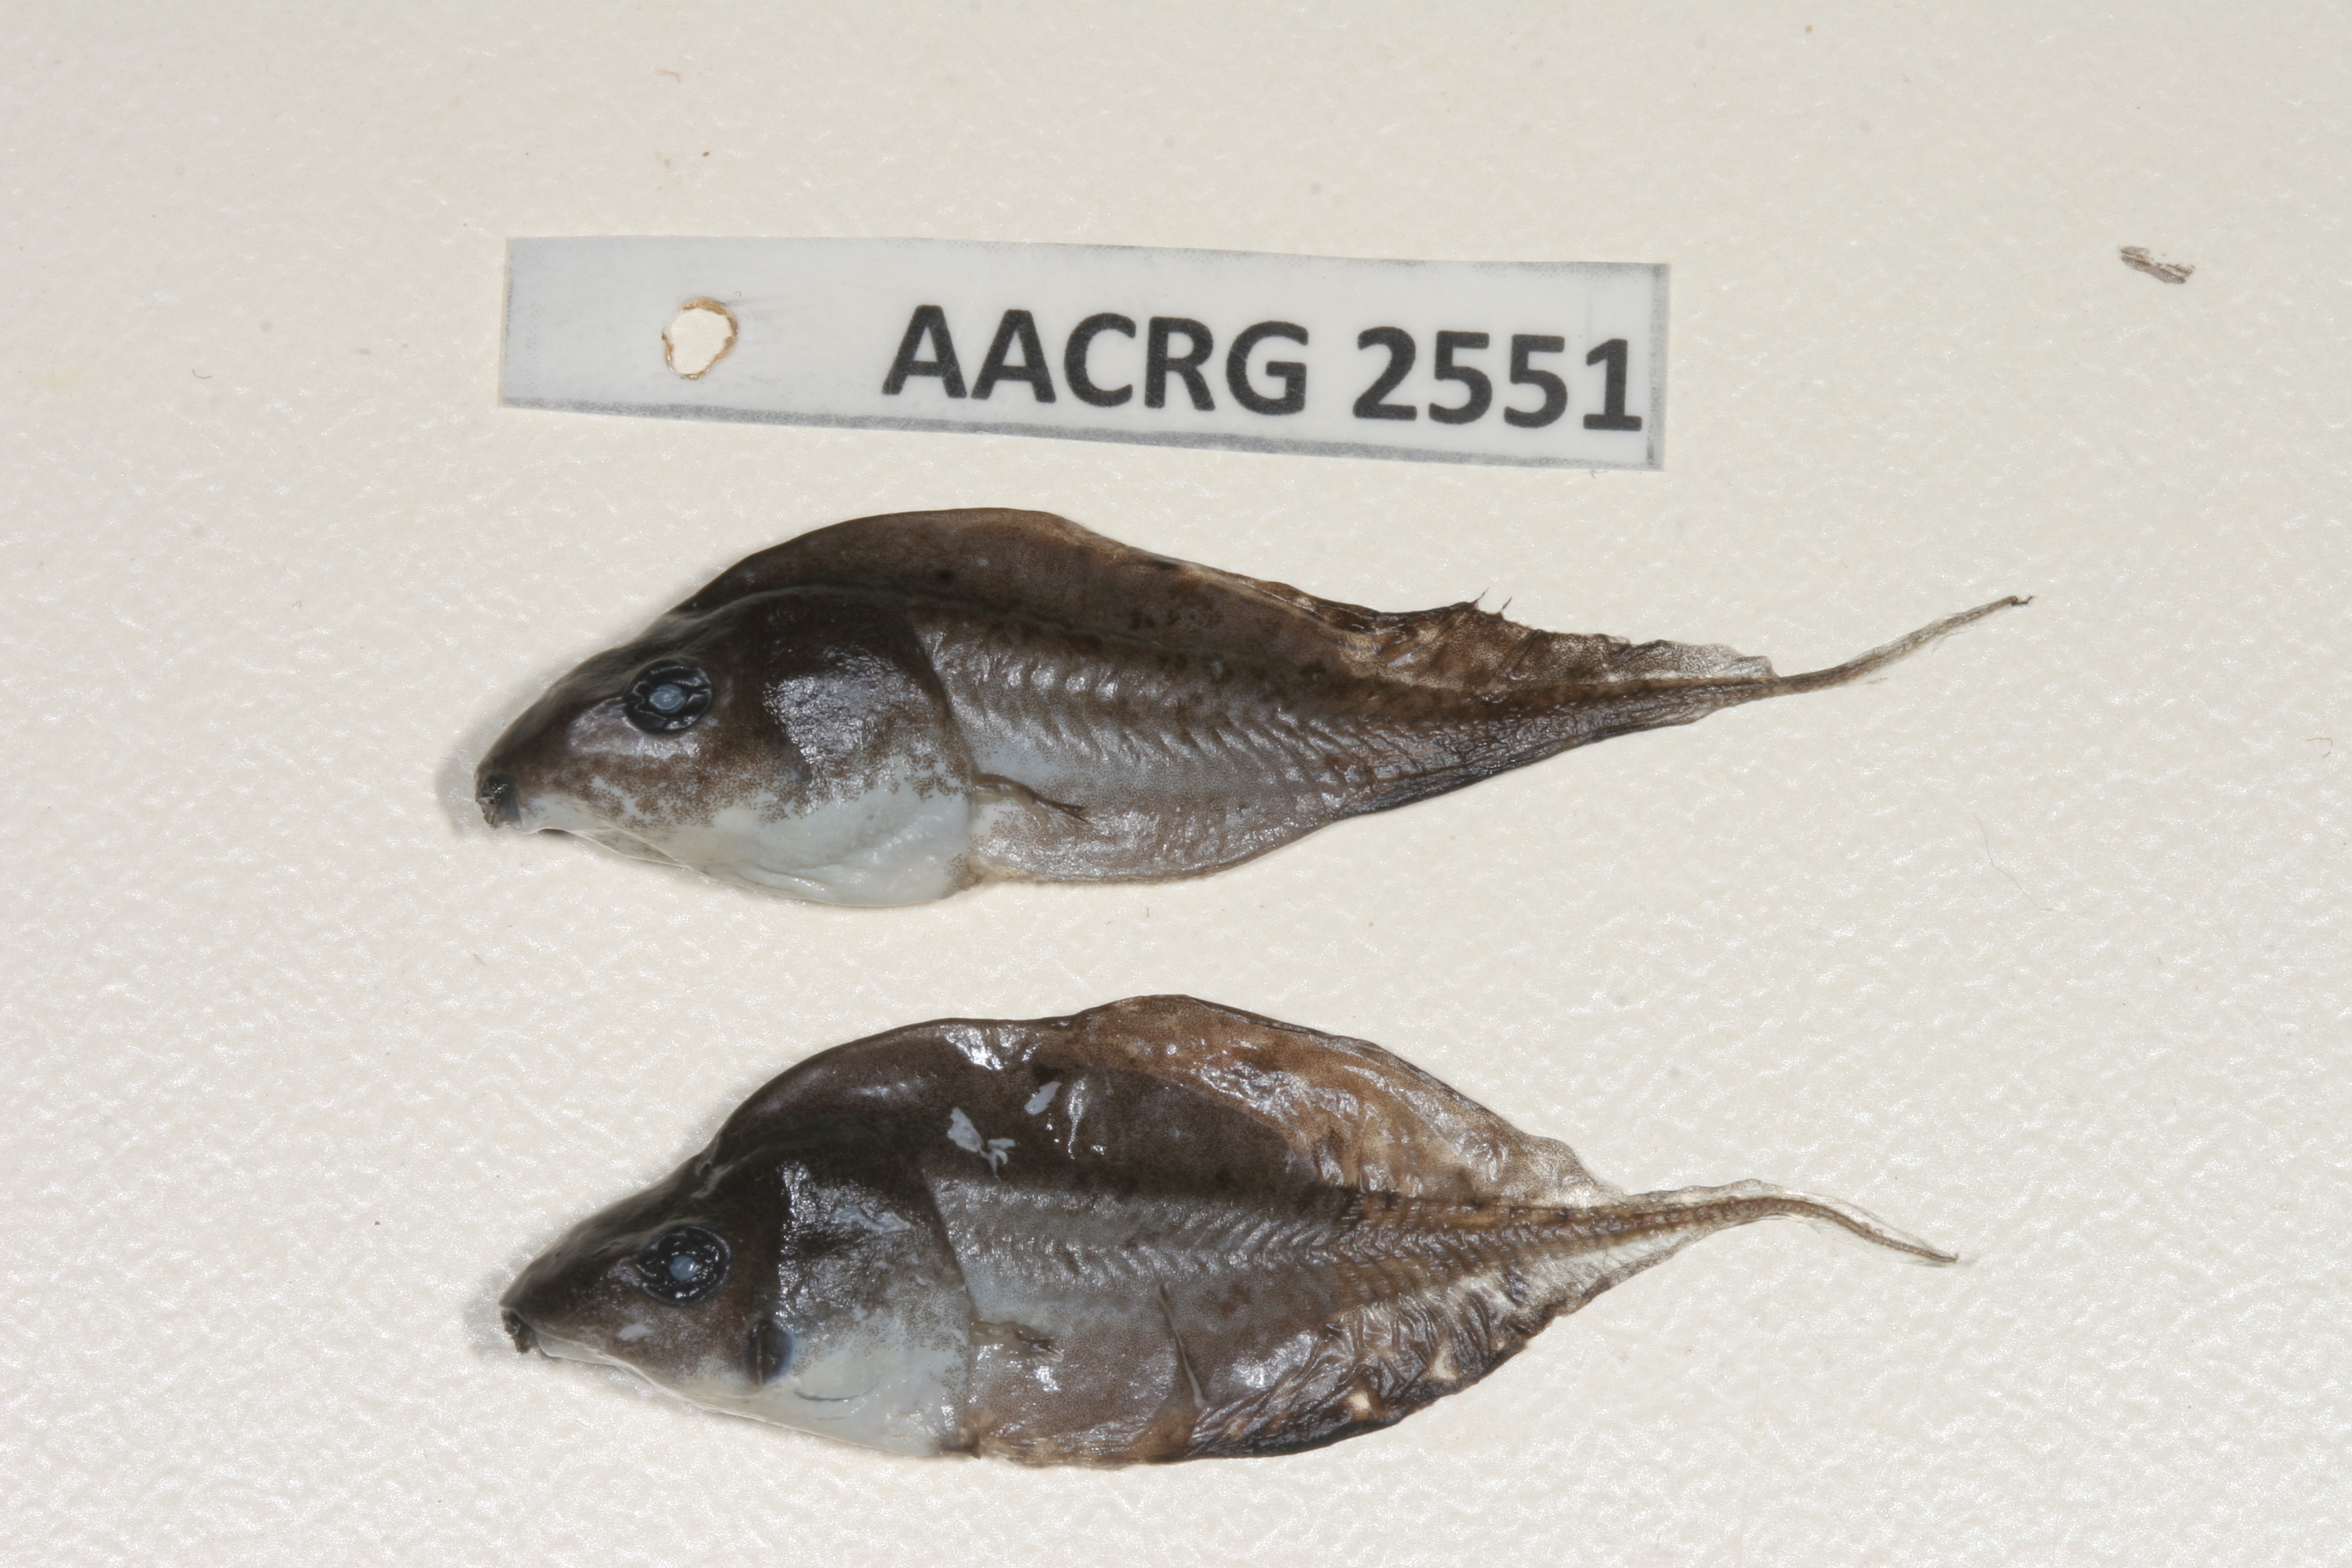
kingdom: Animalia
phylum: Chordata
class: Amphibia
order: Anura
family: Hyperoliidae
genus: Phlyctimantis
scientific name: Phlyctimantis maculatus
